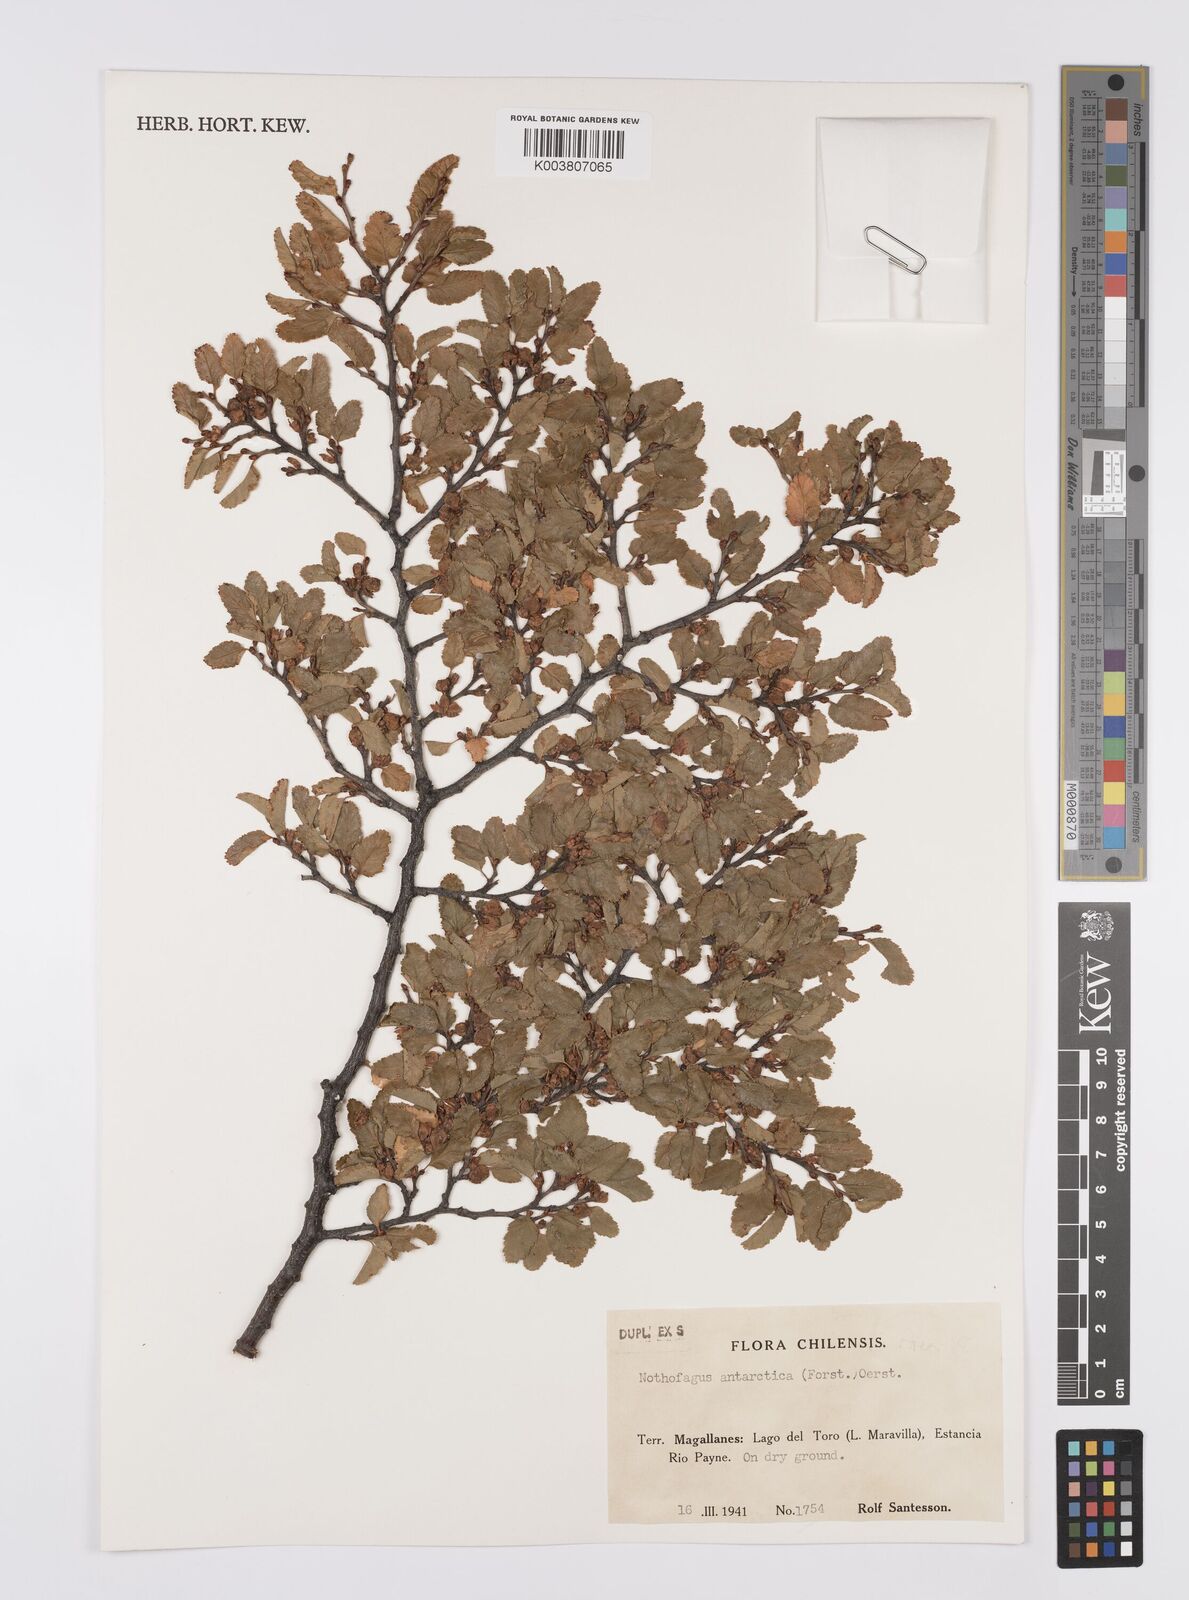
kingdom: Plantae
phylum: Tracheophyta
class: Magnoliopsida
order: Fagales
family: Nothofagaceae
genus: Nothofagus
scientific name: Nothofagus antarctica
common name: Antarctic beech
